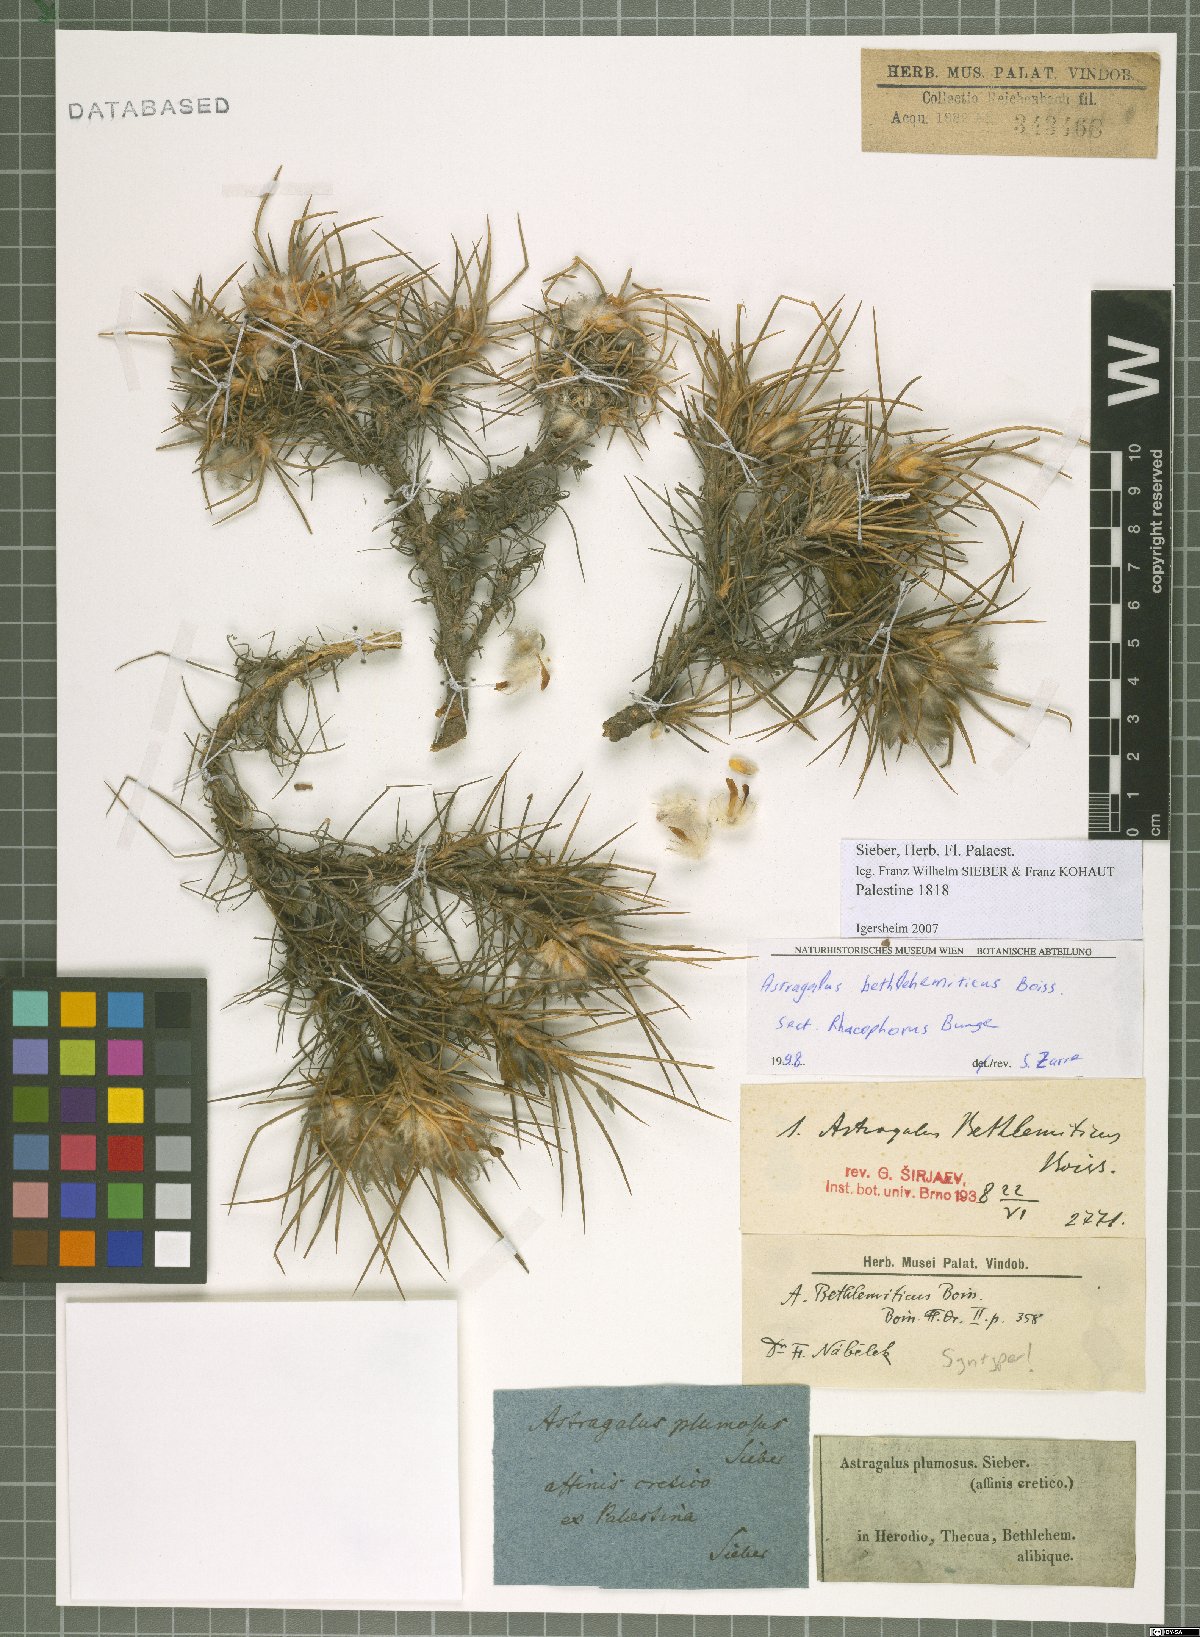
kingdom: Plantae
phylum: Tracheophyta
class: Magnoliopsida
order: Fabales
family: Fabaceae
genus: Astragalus
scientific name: Astragalus bethlehemiticus
